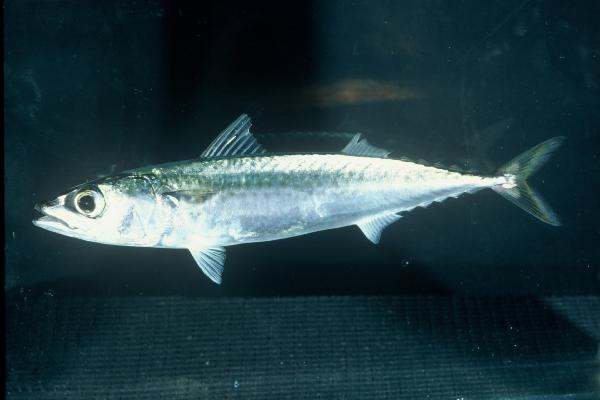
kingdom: Animalia
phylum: Chordata
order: Perciformes
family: Scombridae
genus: Scomber
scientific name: Scomber japonicus
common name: Chub mackerel
